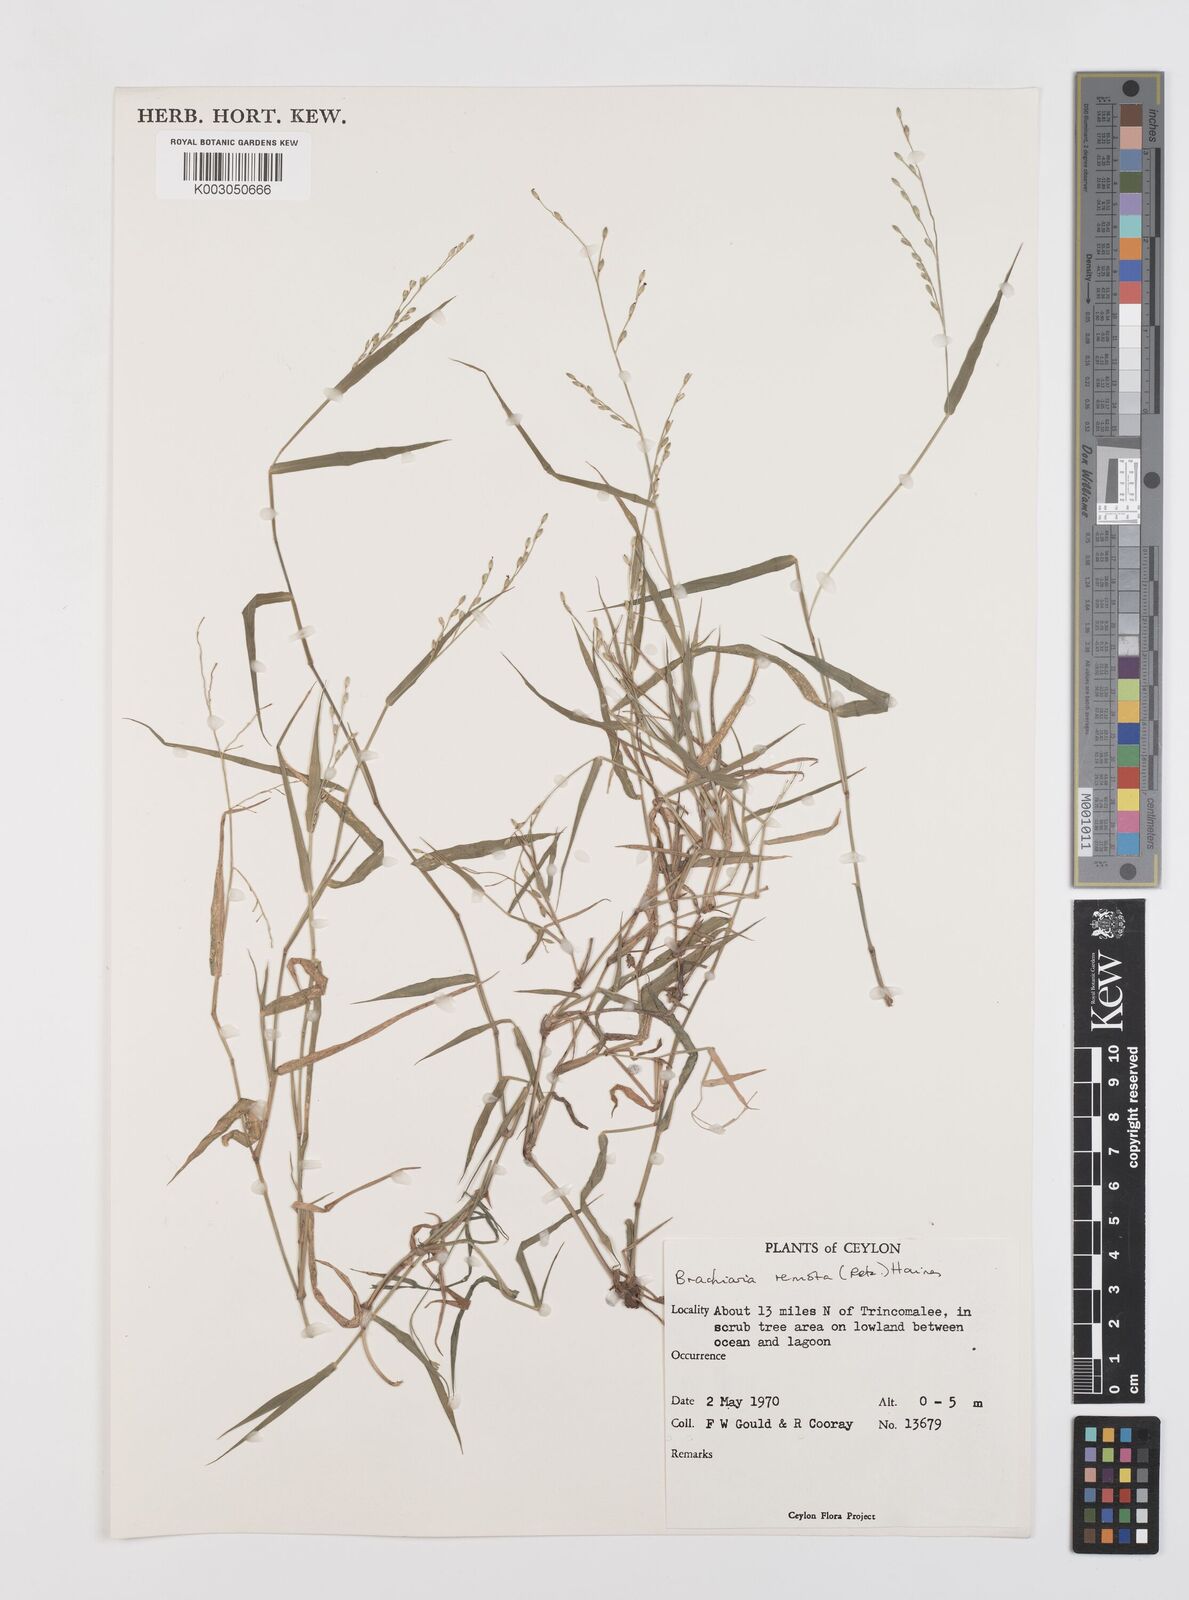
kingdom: Plantae
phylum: Tracheophyta
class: Liliopsida
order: Poales
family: Poaceae
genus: Urochloa
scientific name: Urochloa Brachiaria remota
